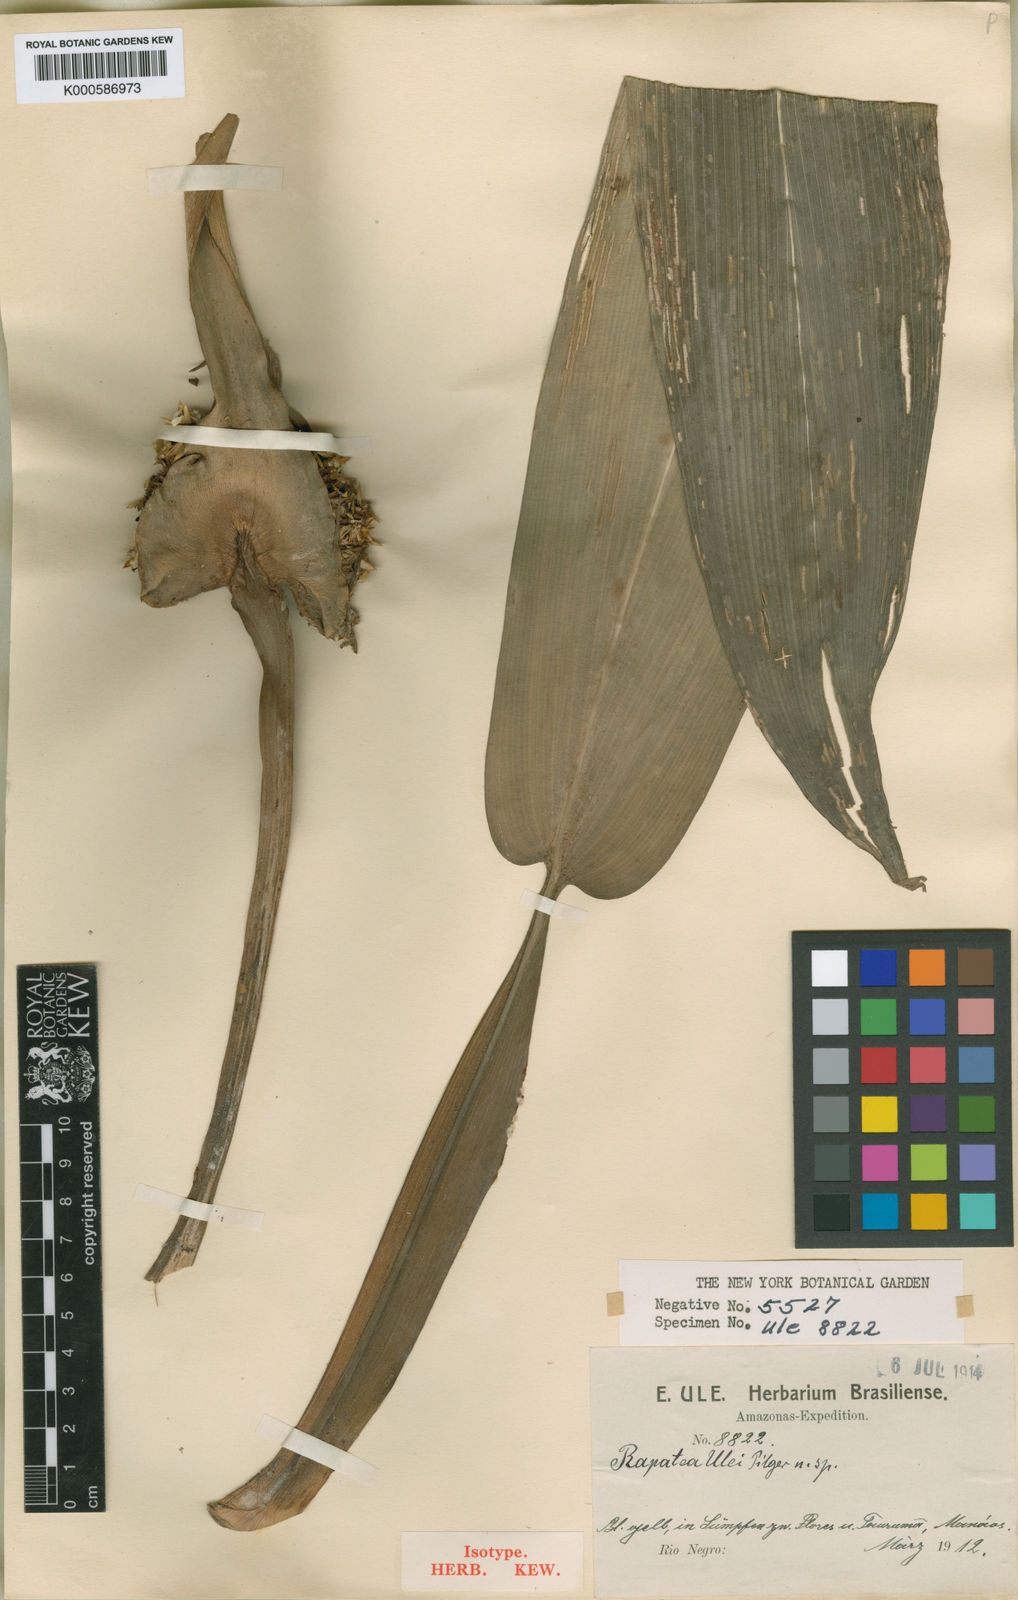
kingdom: Plantae
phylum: Tracheophyta
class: Liliopsida
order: Poales
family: Rapateaceae
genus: Rapatea
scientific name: Rapatea ulei
